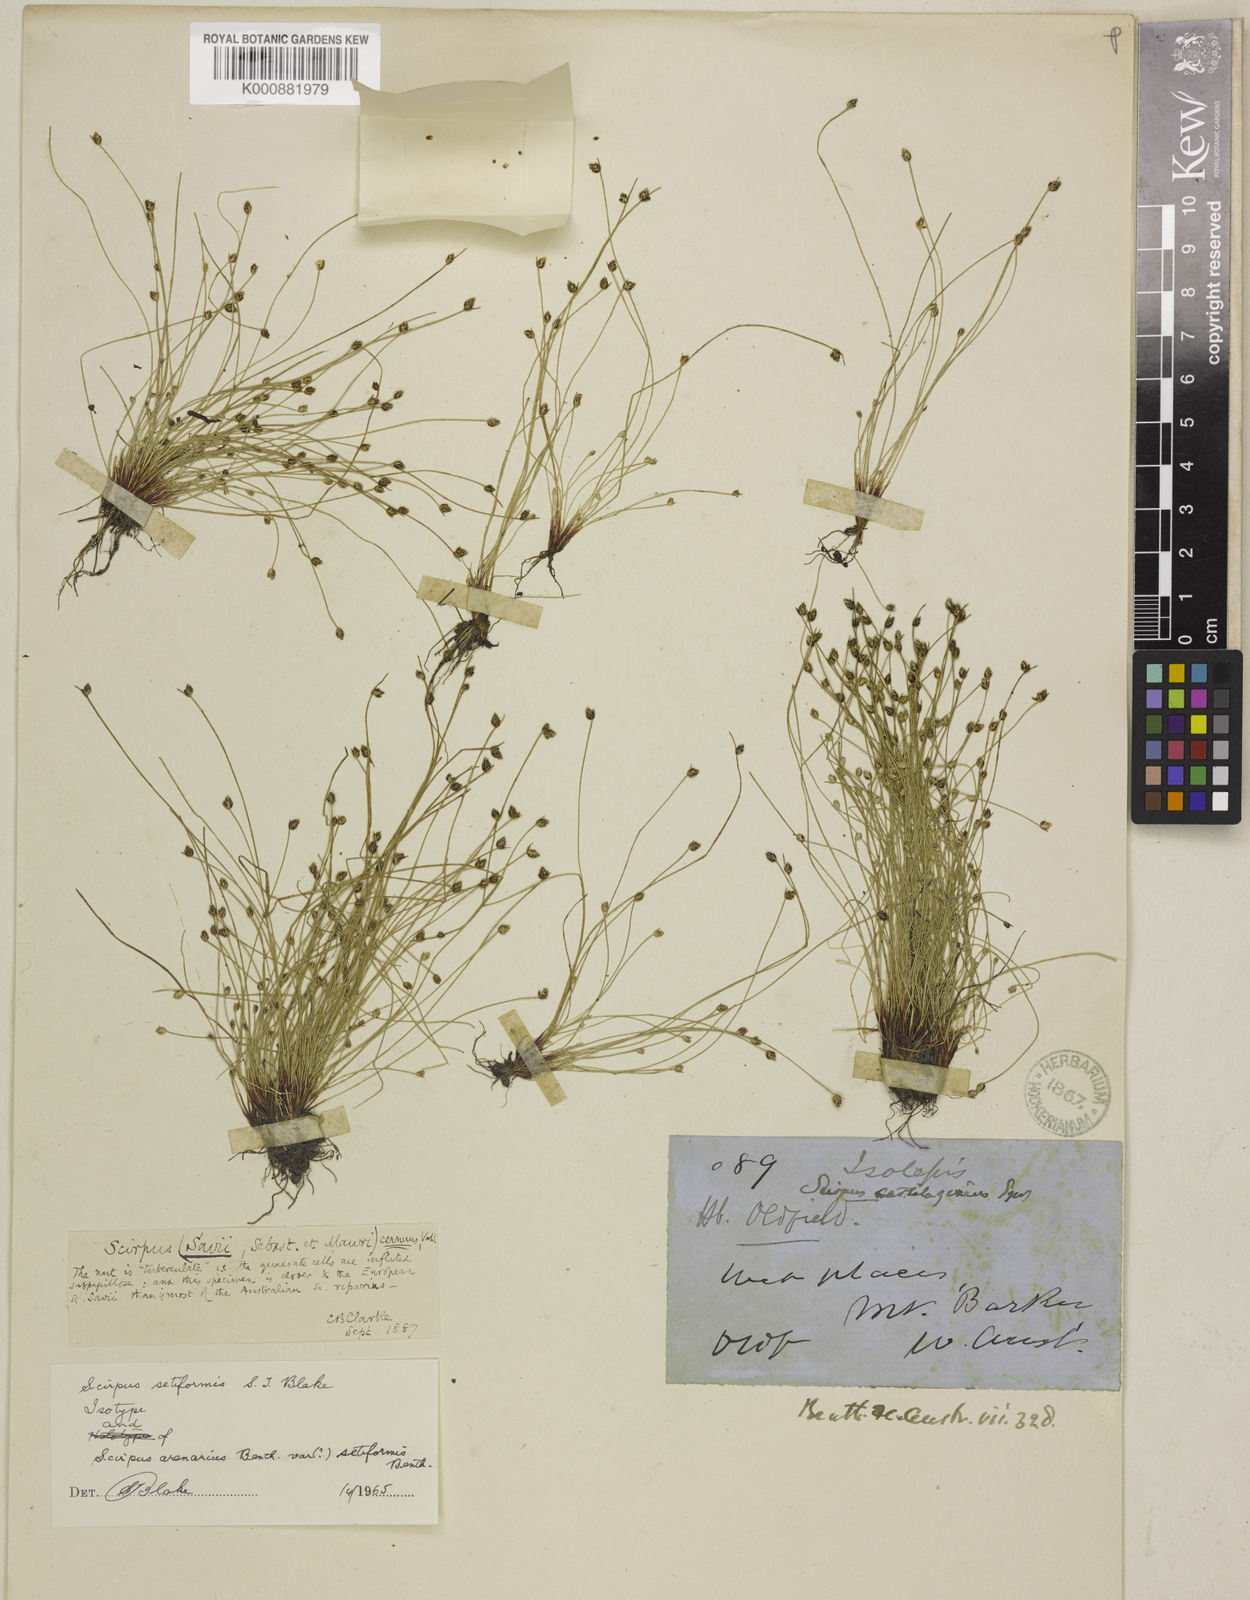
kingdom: Plantae
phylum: Tracheophyta
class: Liliopsida
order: Poales
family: Cyperaceae
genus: Isolepis
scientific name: Isolepis cernua
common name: Slender club-rush
